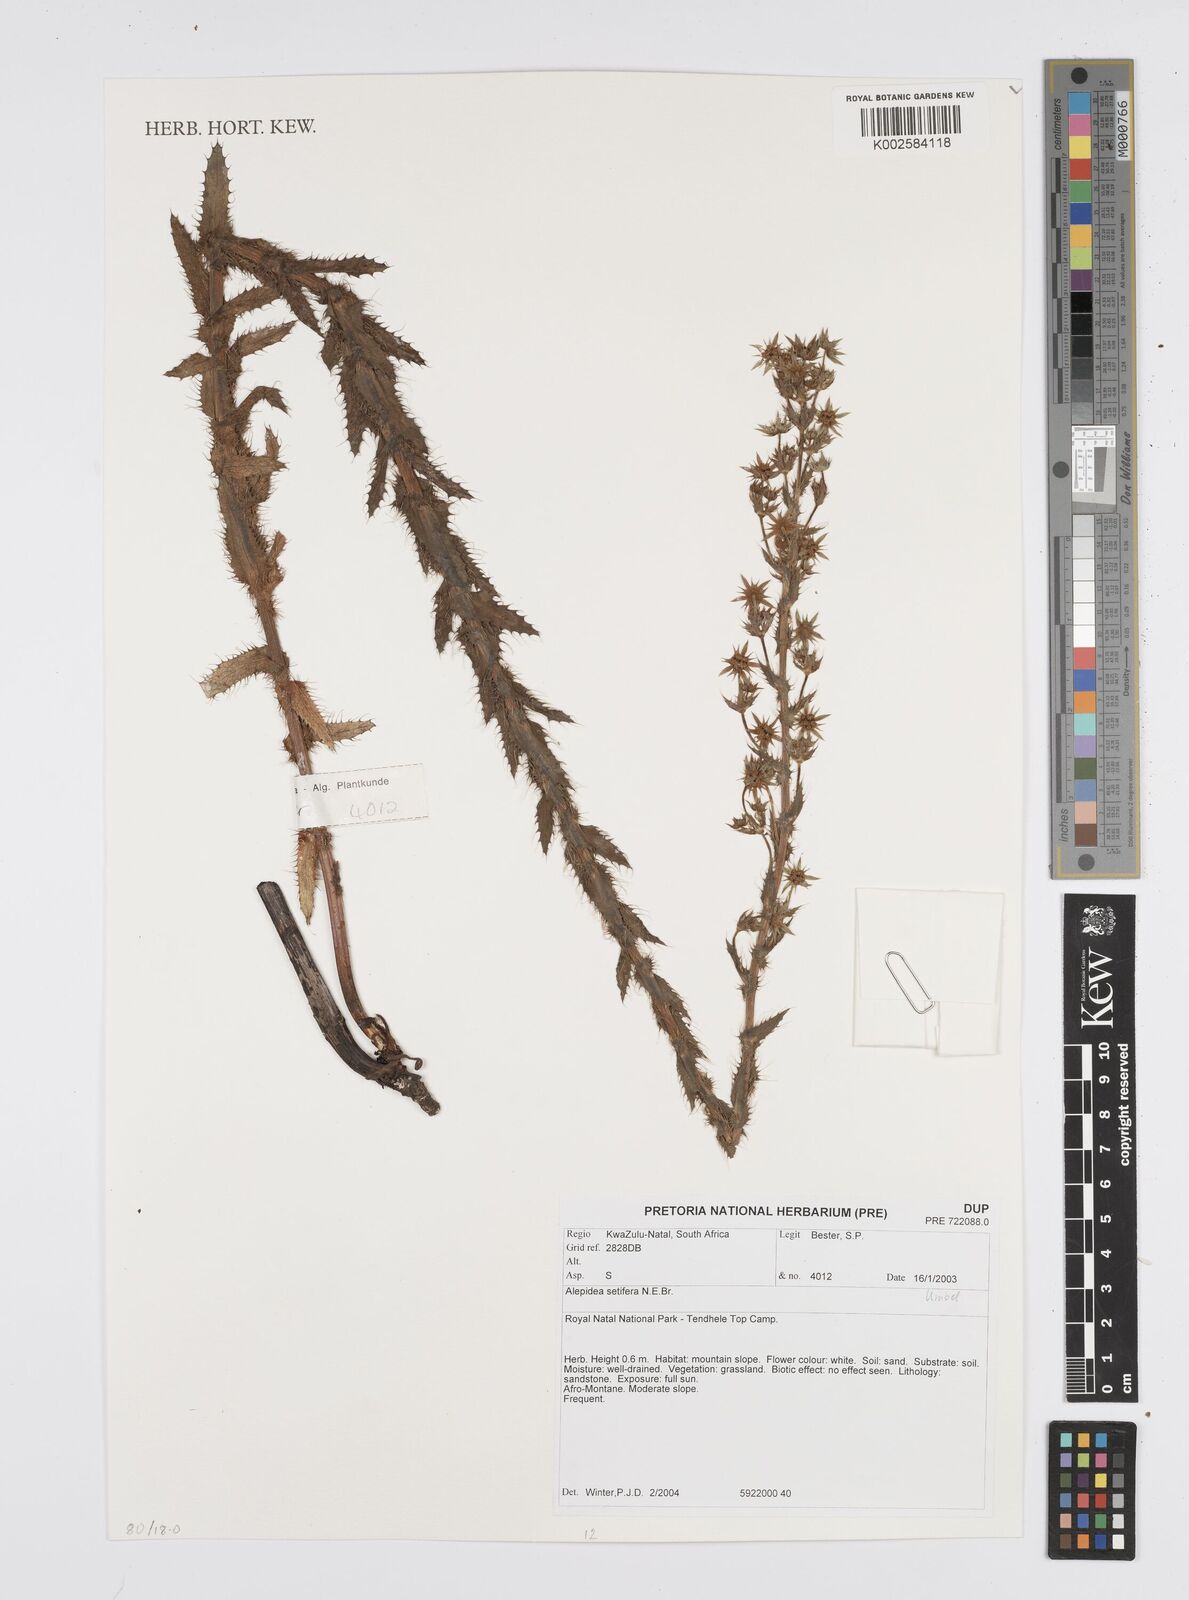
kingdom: Plantae
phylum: Tracheophyta
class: Magnoliopsida
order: Apiales
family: Apiaceae
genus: Alepidea
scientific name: Alepidea setifera
